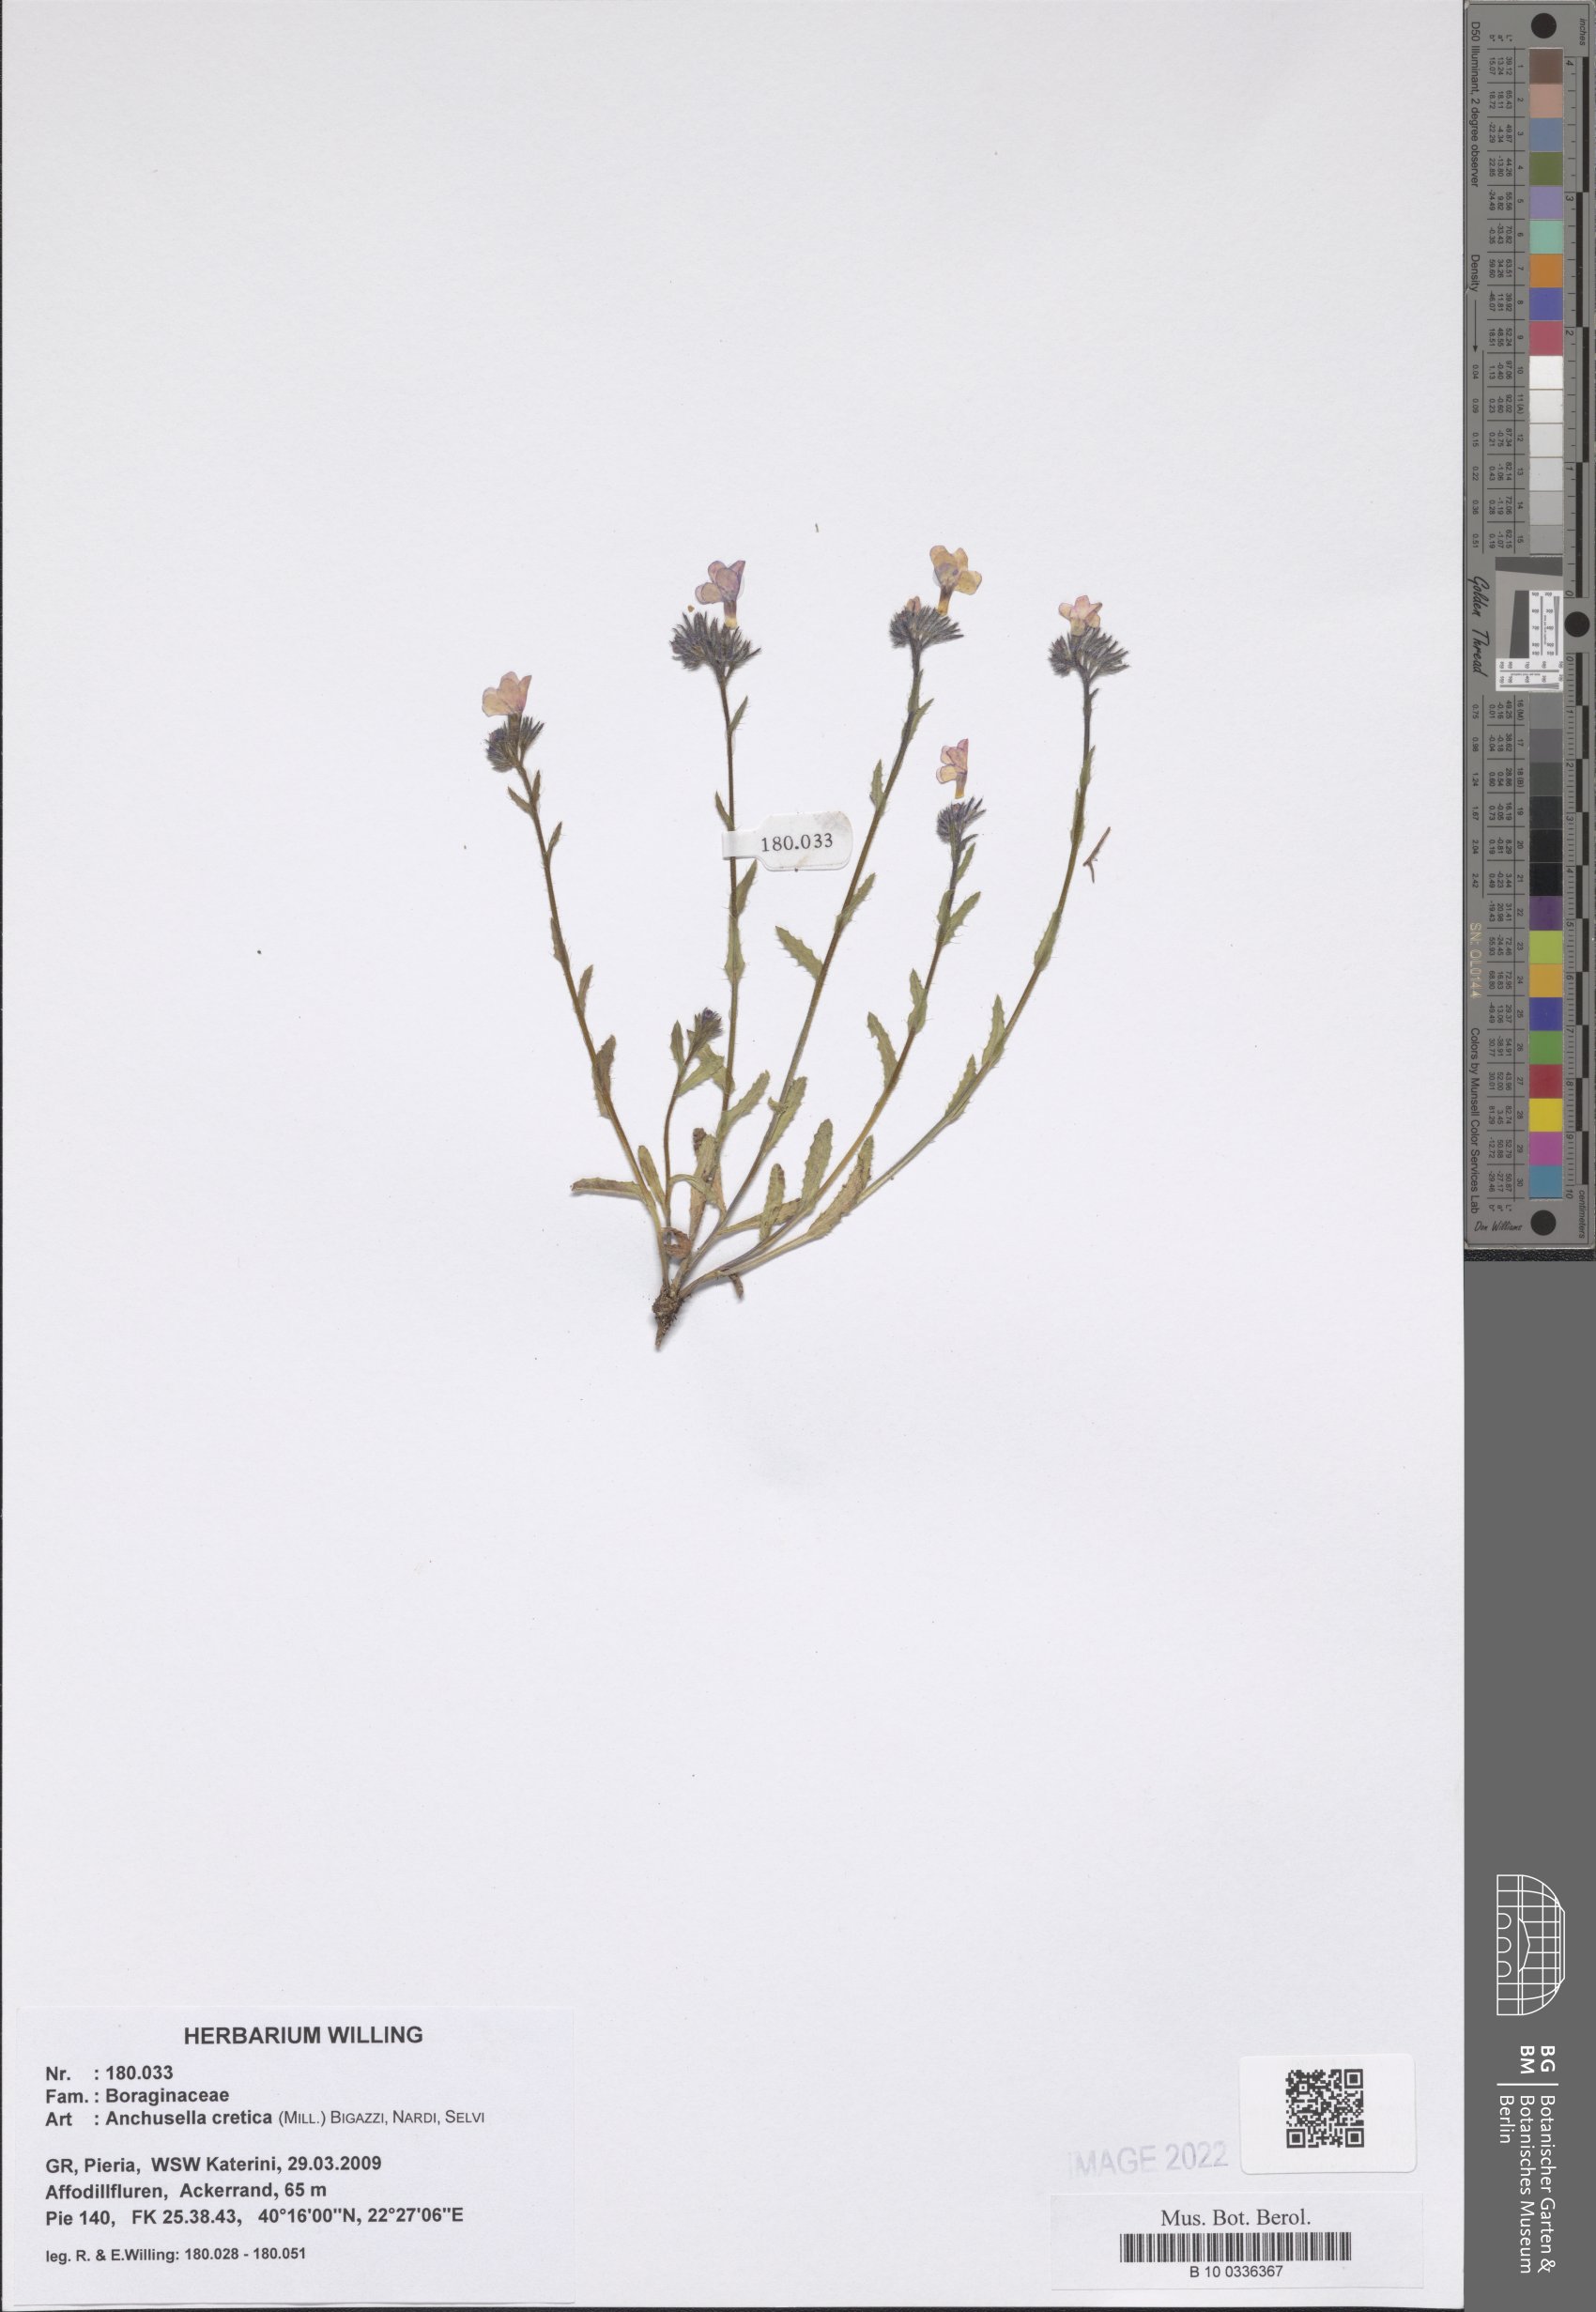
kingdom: Plantae
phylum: Tracheophyta
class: Magnoliopsida
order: Boraginales
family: Boraginaceae
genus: Anchusella
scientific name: Anchusella cretica
